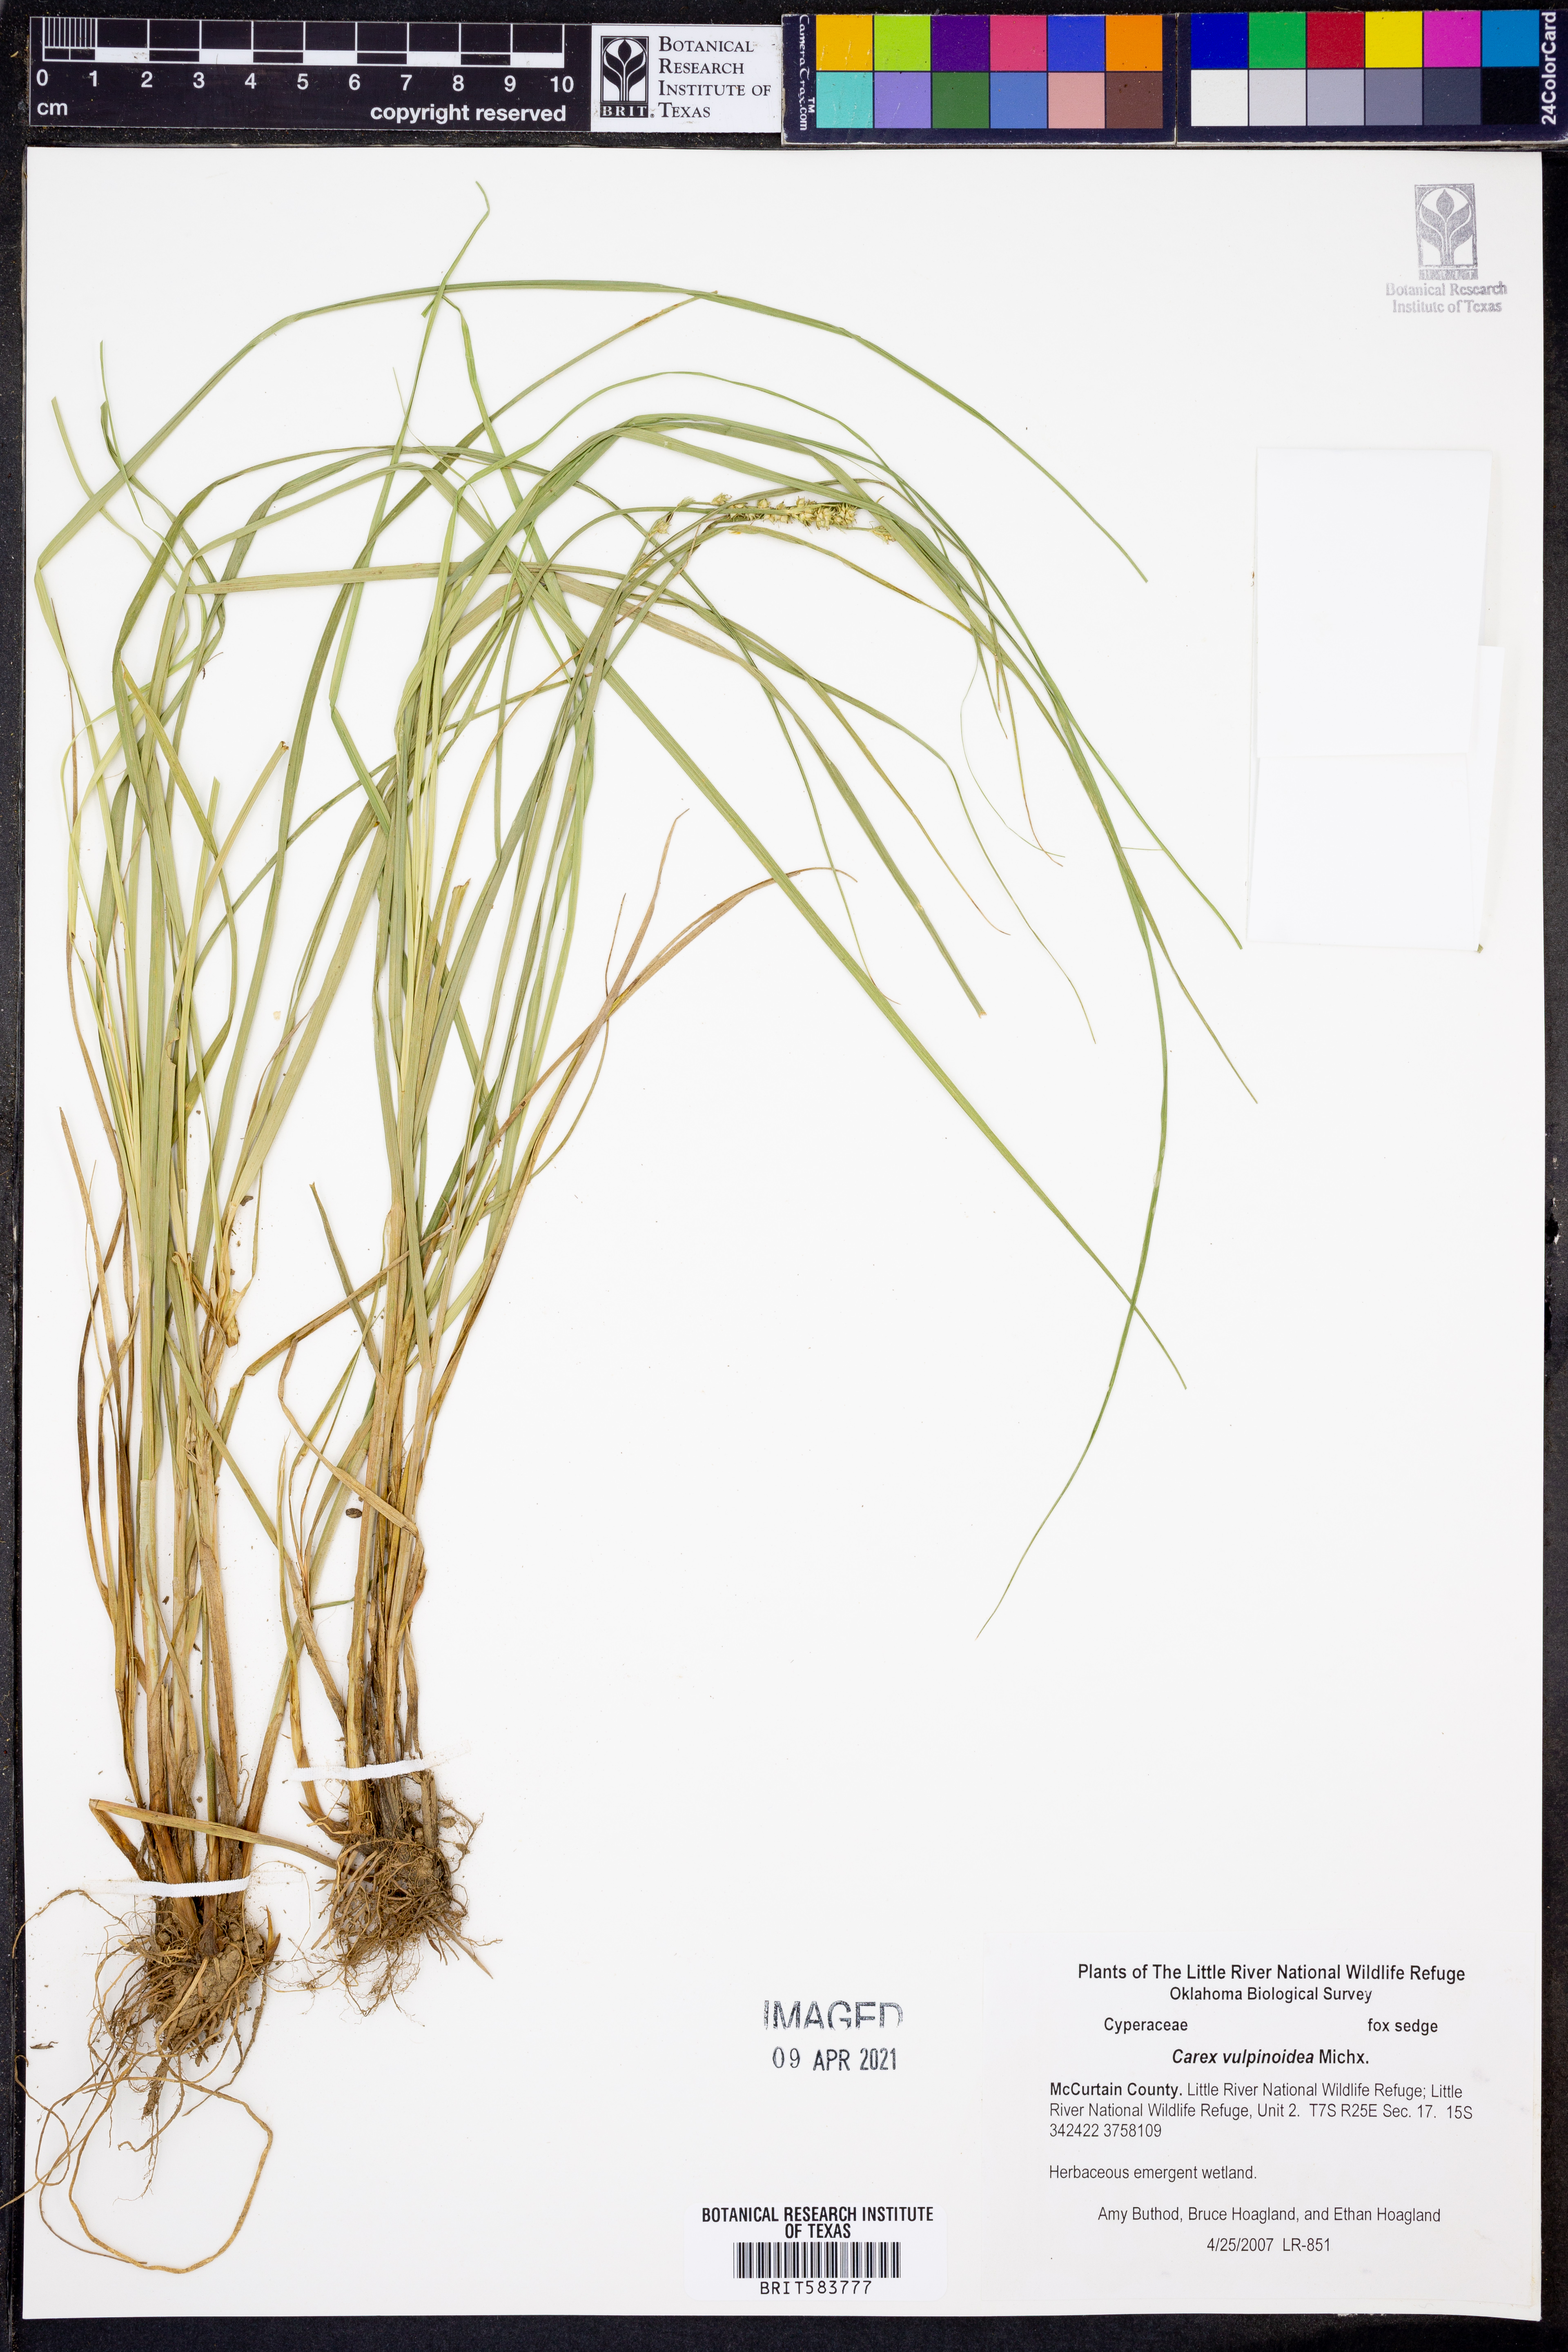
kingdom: Plantae
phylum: Tracheophyta
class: Liliopsida
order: Poales
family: Cyperaceae
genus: Carex
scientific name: Carex vulpinoidea
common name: American fox-sedge
